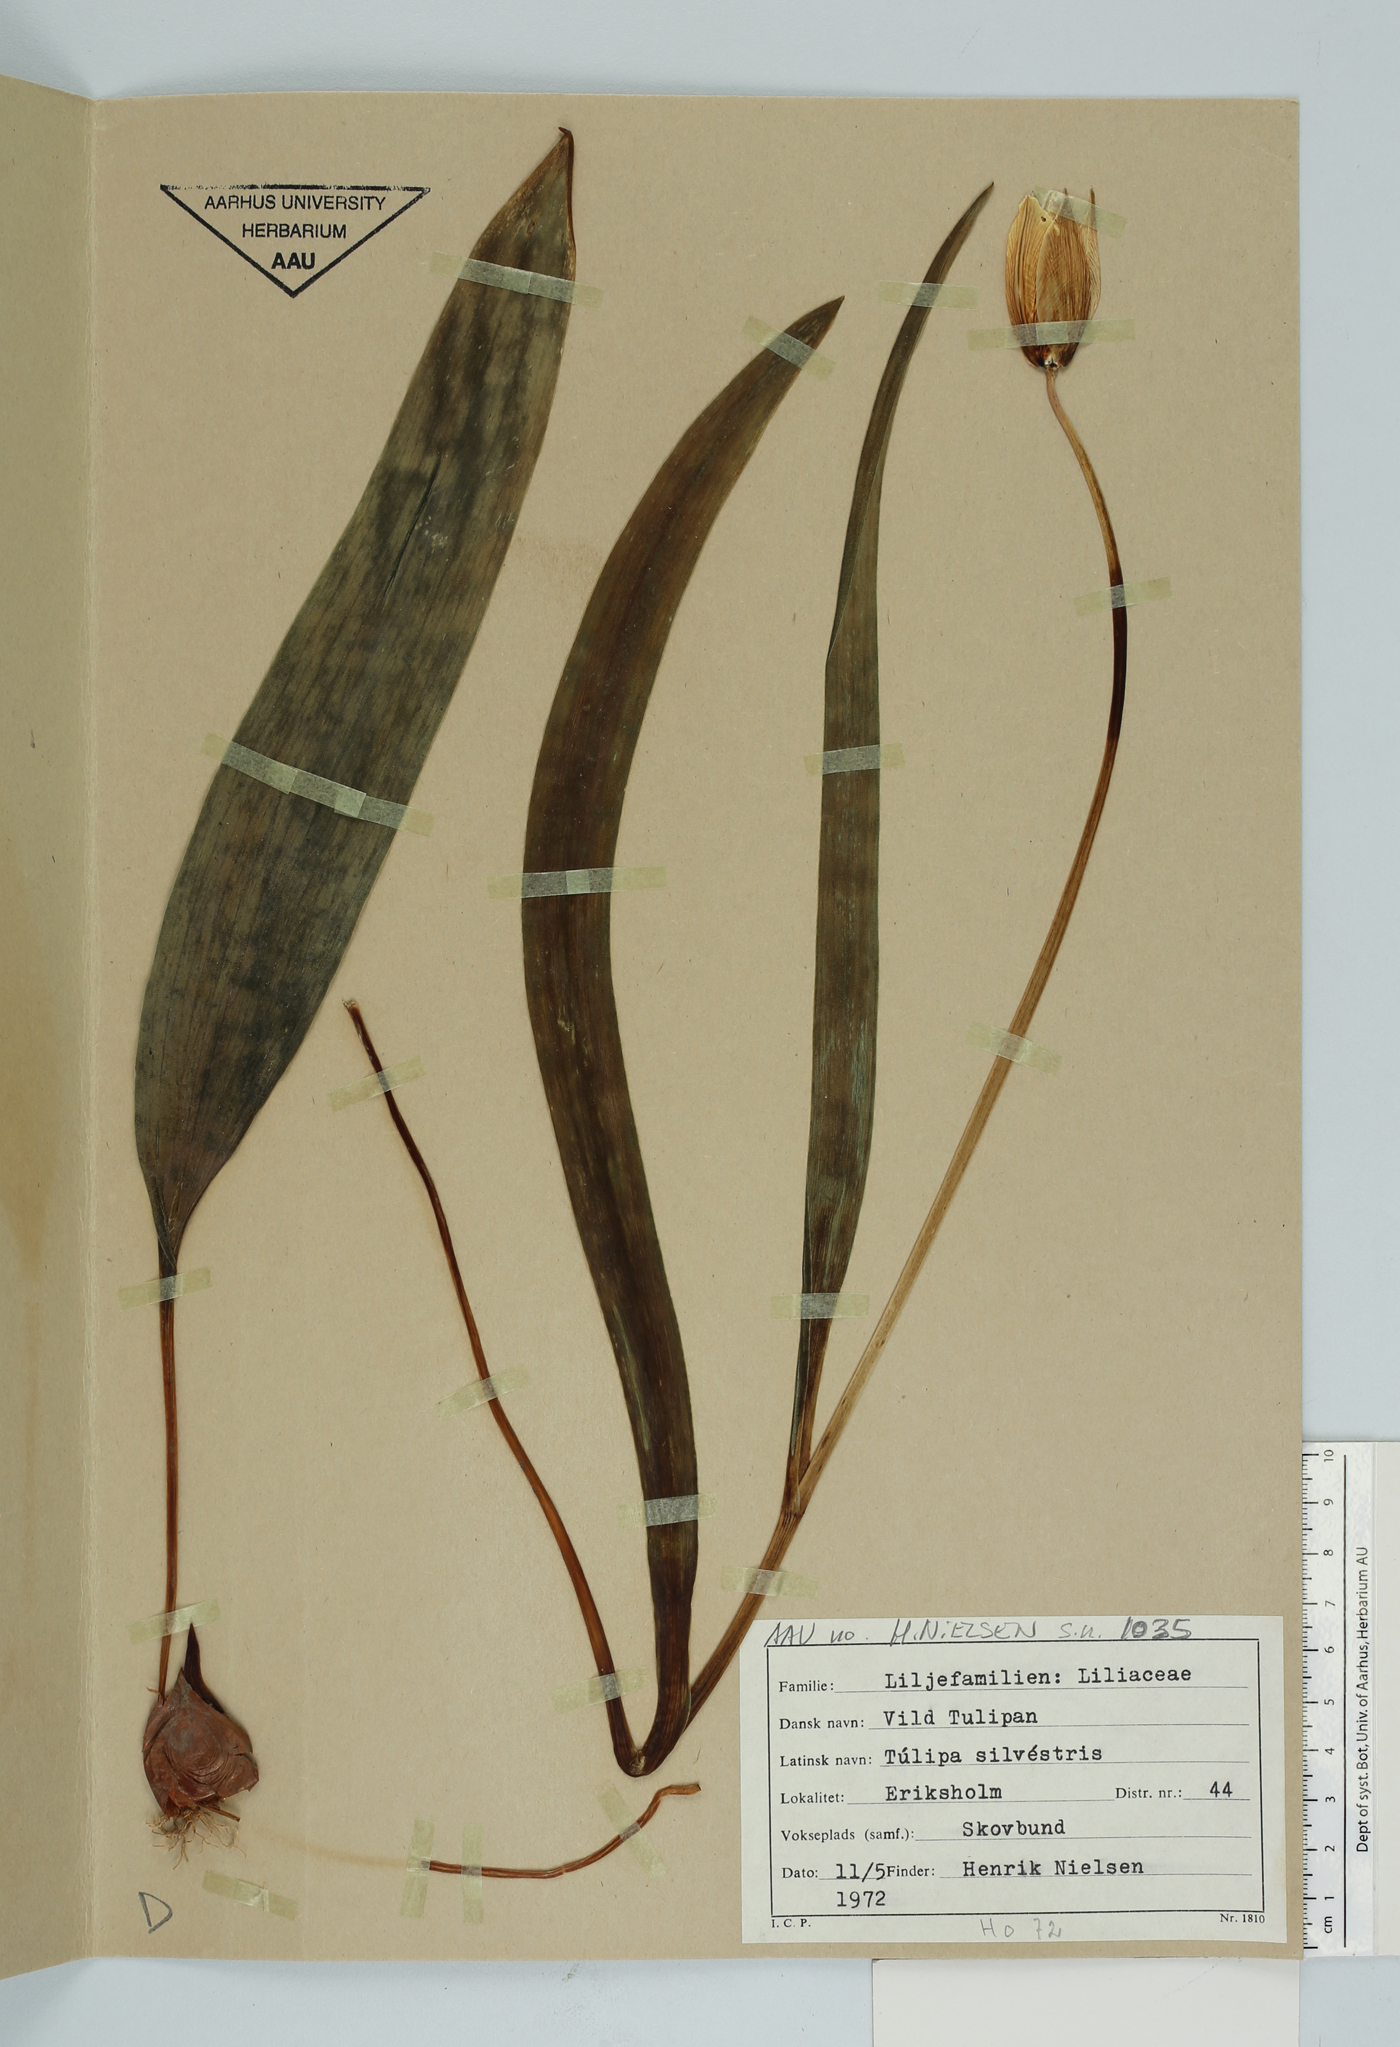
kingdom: Plantae
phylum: Tracheophyta
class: Liliopsida
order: Liliales
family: Liliaceae
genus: Tulipa
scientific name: Tulipa sylvestris
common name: Wild tulip
